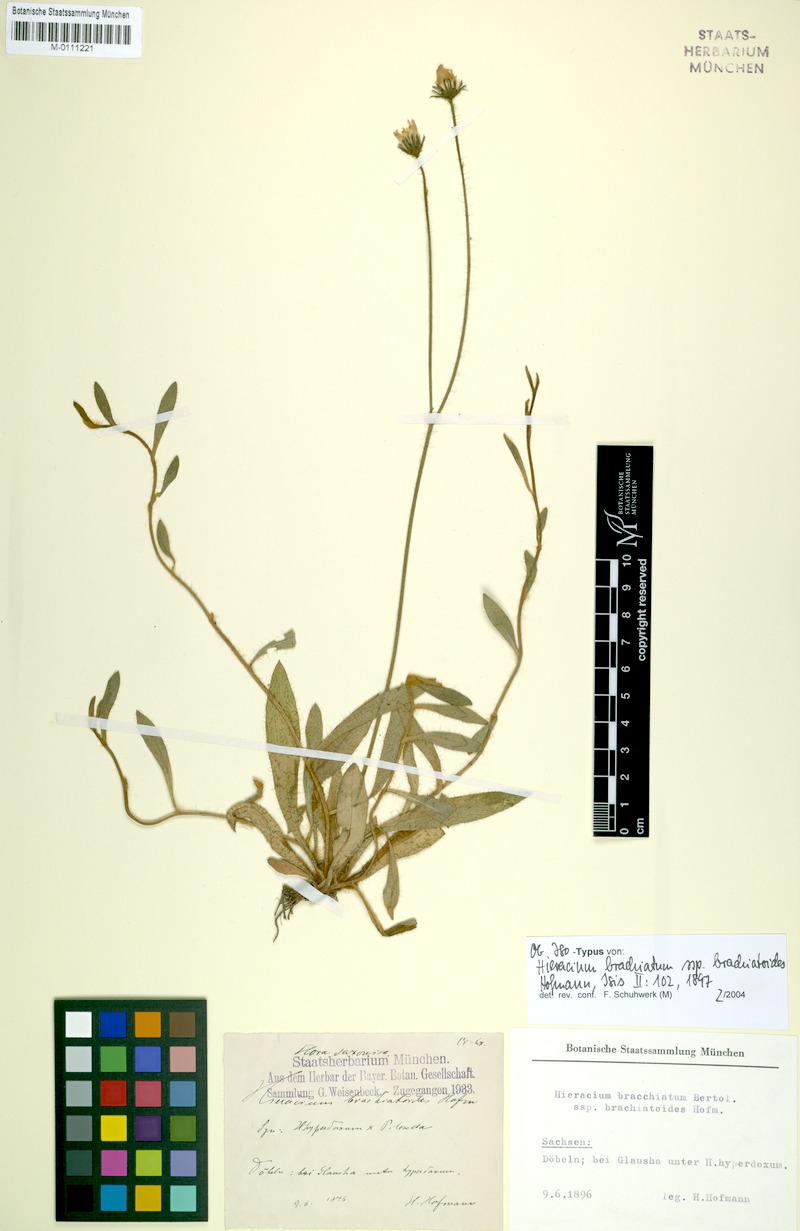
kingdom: Plantae
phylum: Tracheophyta
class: Magnoliopsida
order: Asterales
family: Asteraceae
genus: Pilosella
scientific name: Pilosella acutifolia
